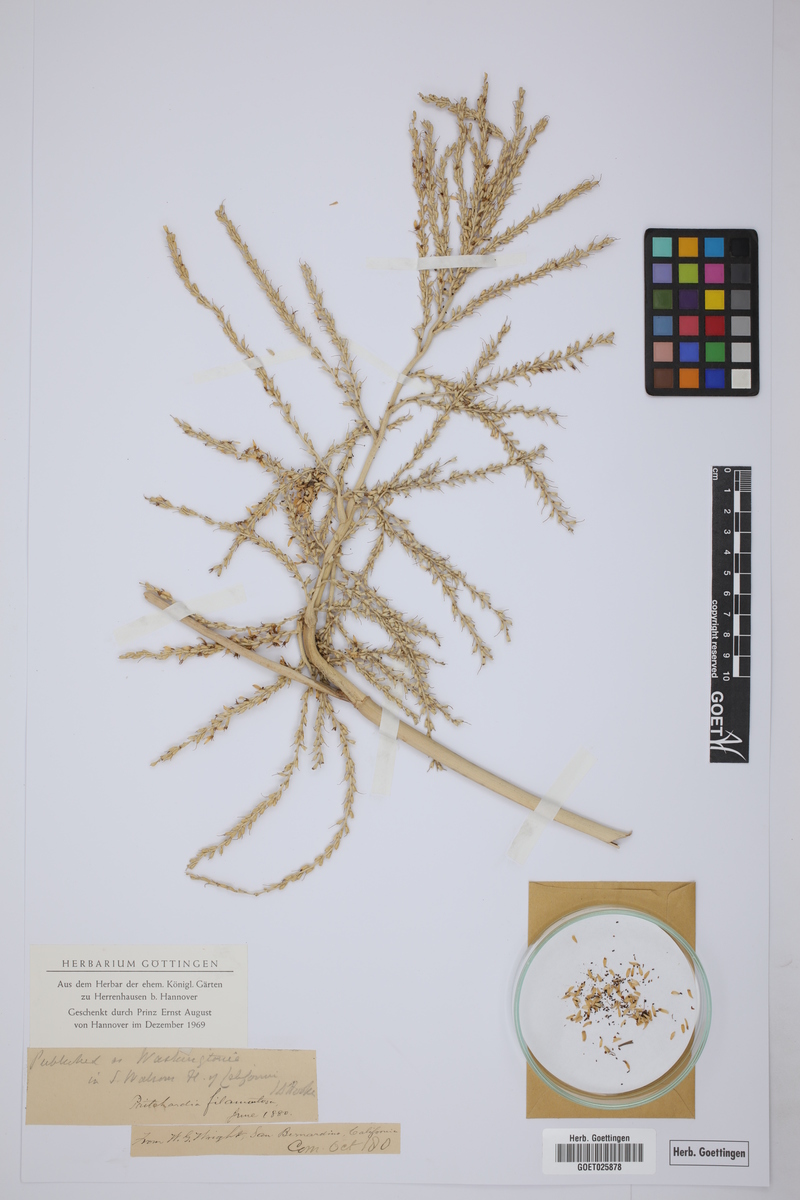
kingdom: Plantae
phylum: Tracheophyta
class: Liliopsida
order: Arecales
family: Arecaceae
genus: Washingtonia
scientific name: Washingtonia filifera
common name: California fan palm
